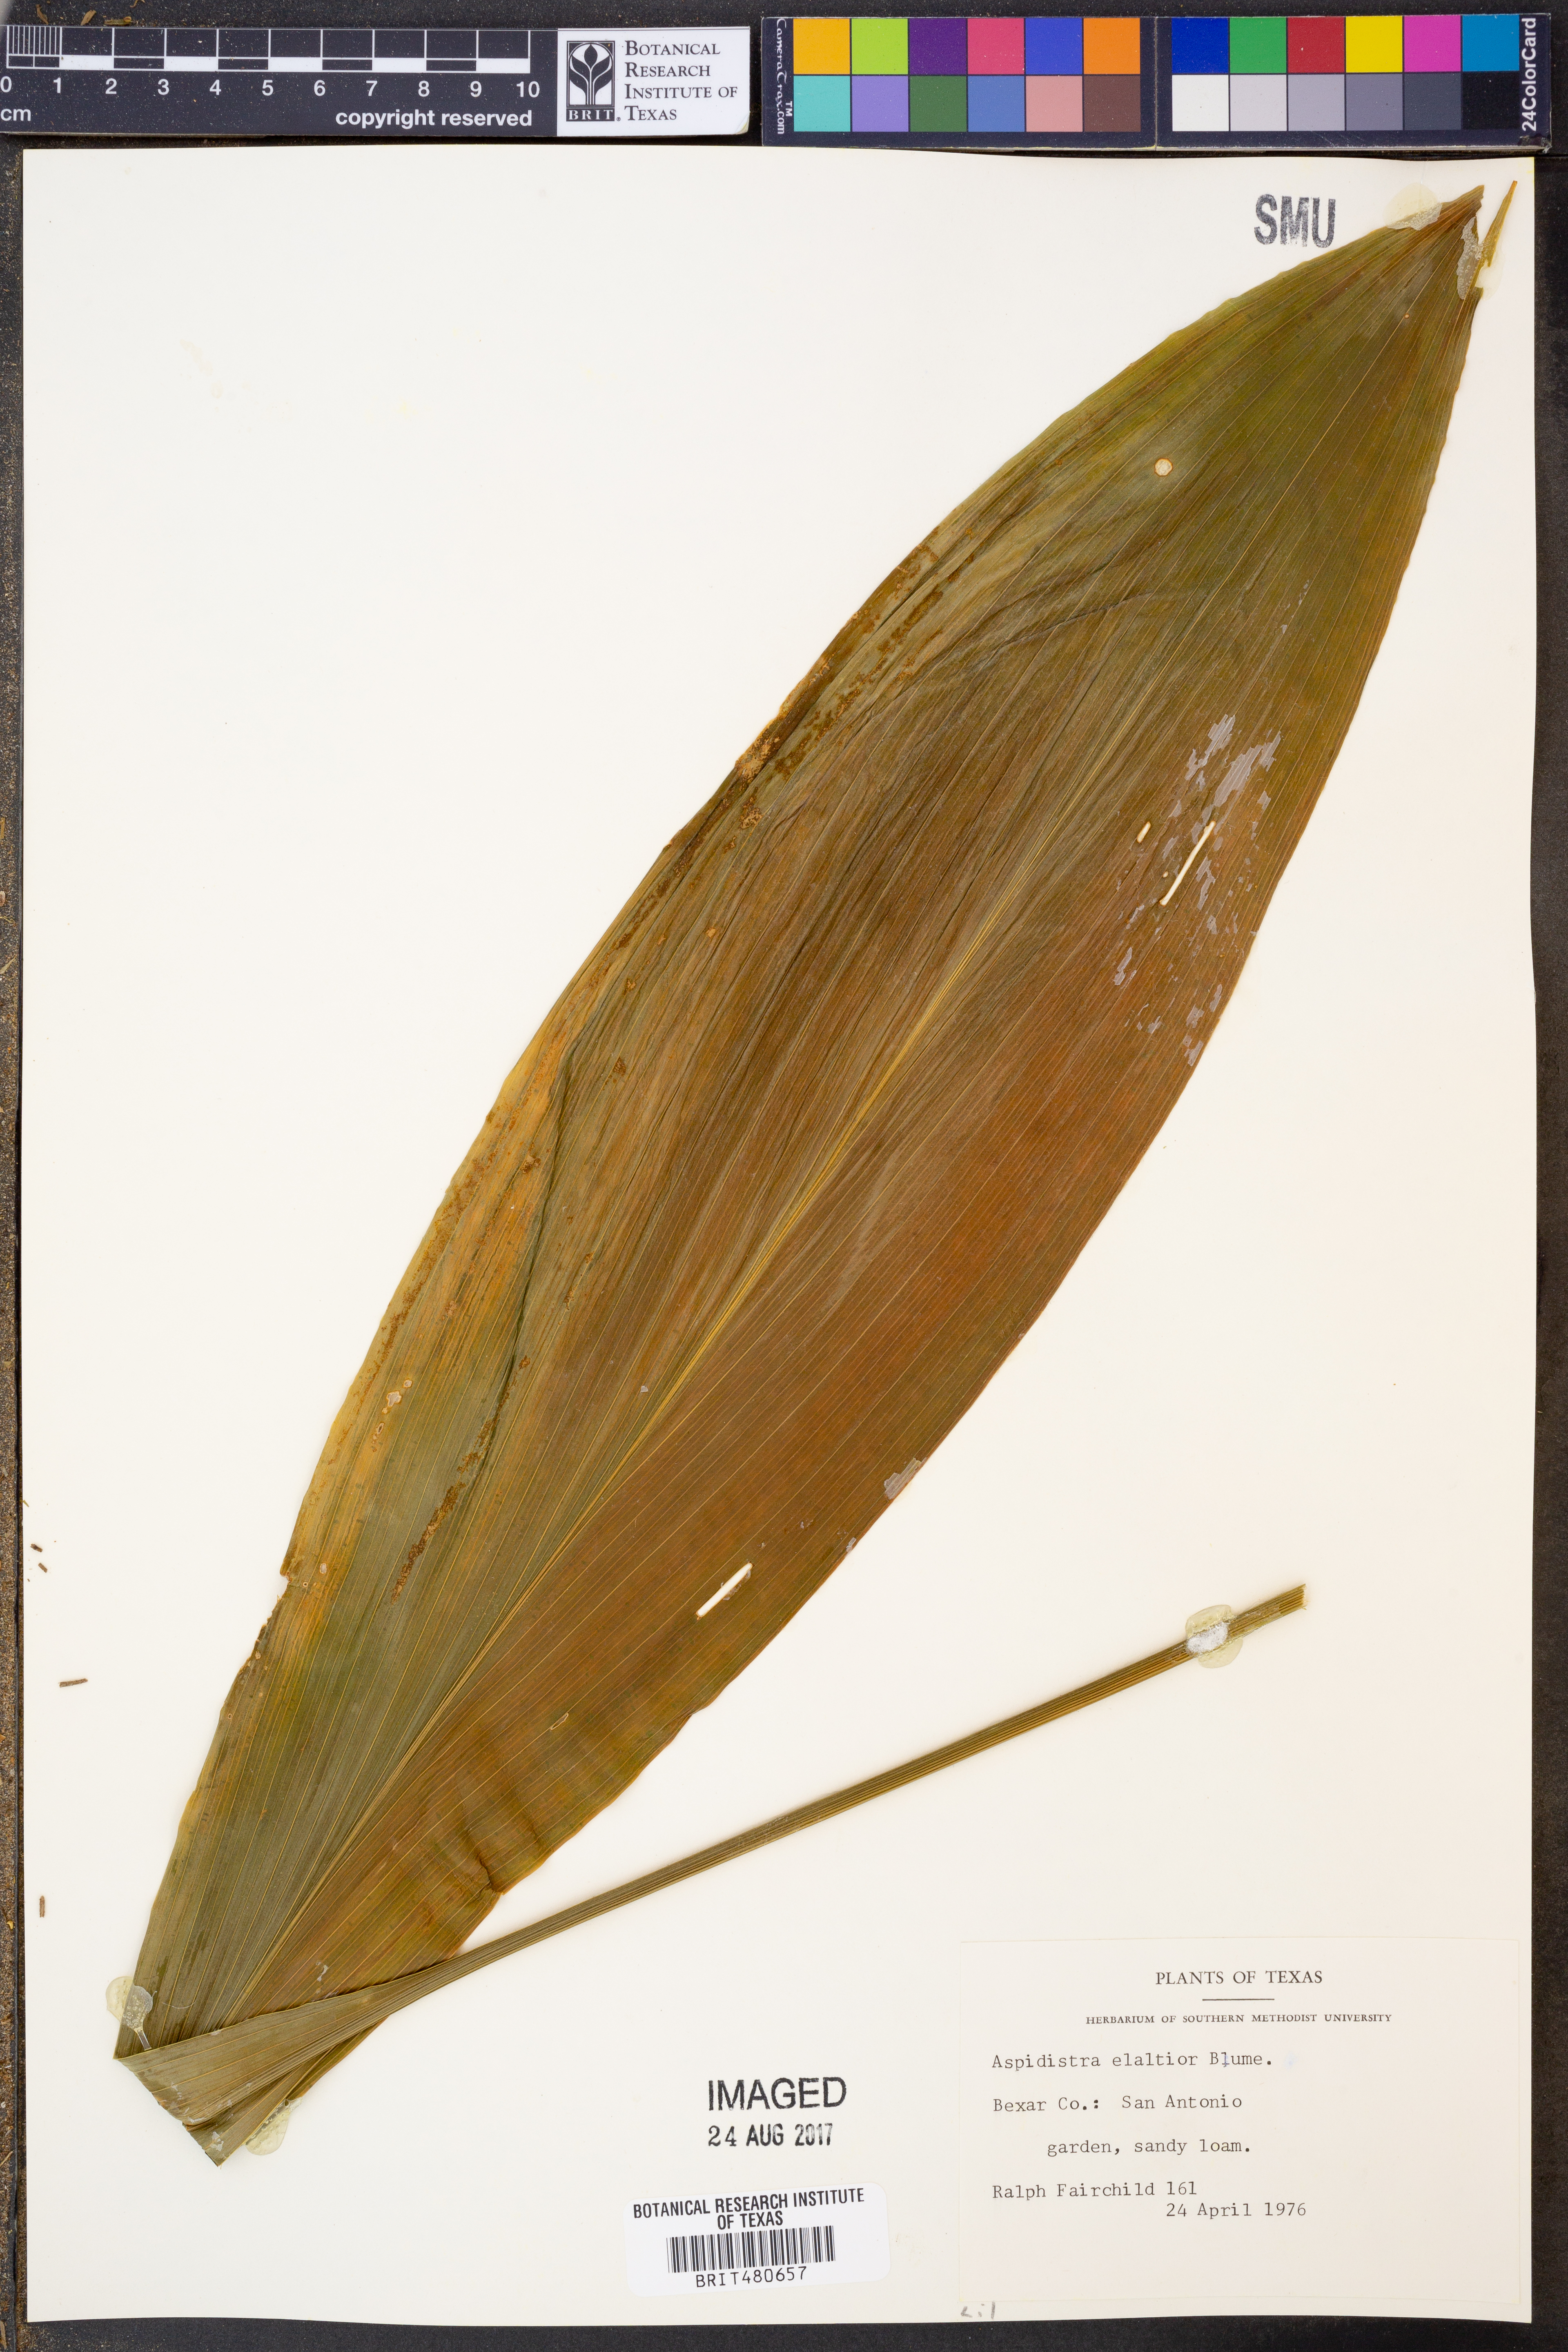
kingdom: Plantae
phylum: Tracheophyta
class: Liliopsida
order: Asparagales
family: Asparagaceae
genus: Aspidistra
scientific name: Aspidistra elatior
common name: Cast-iron-plant
